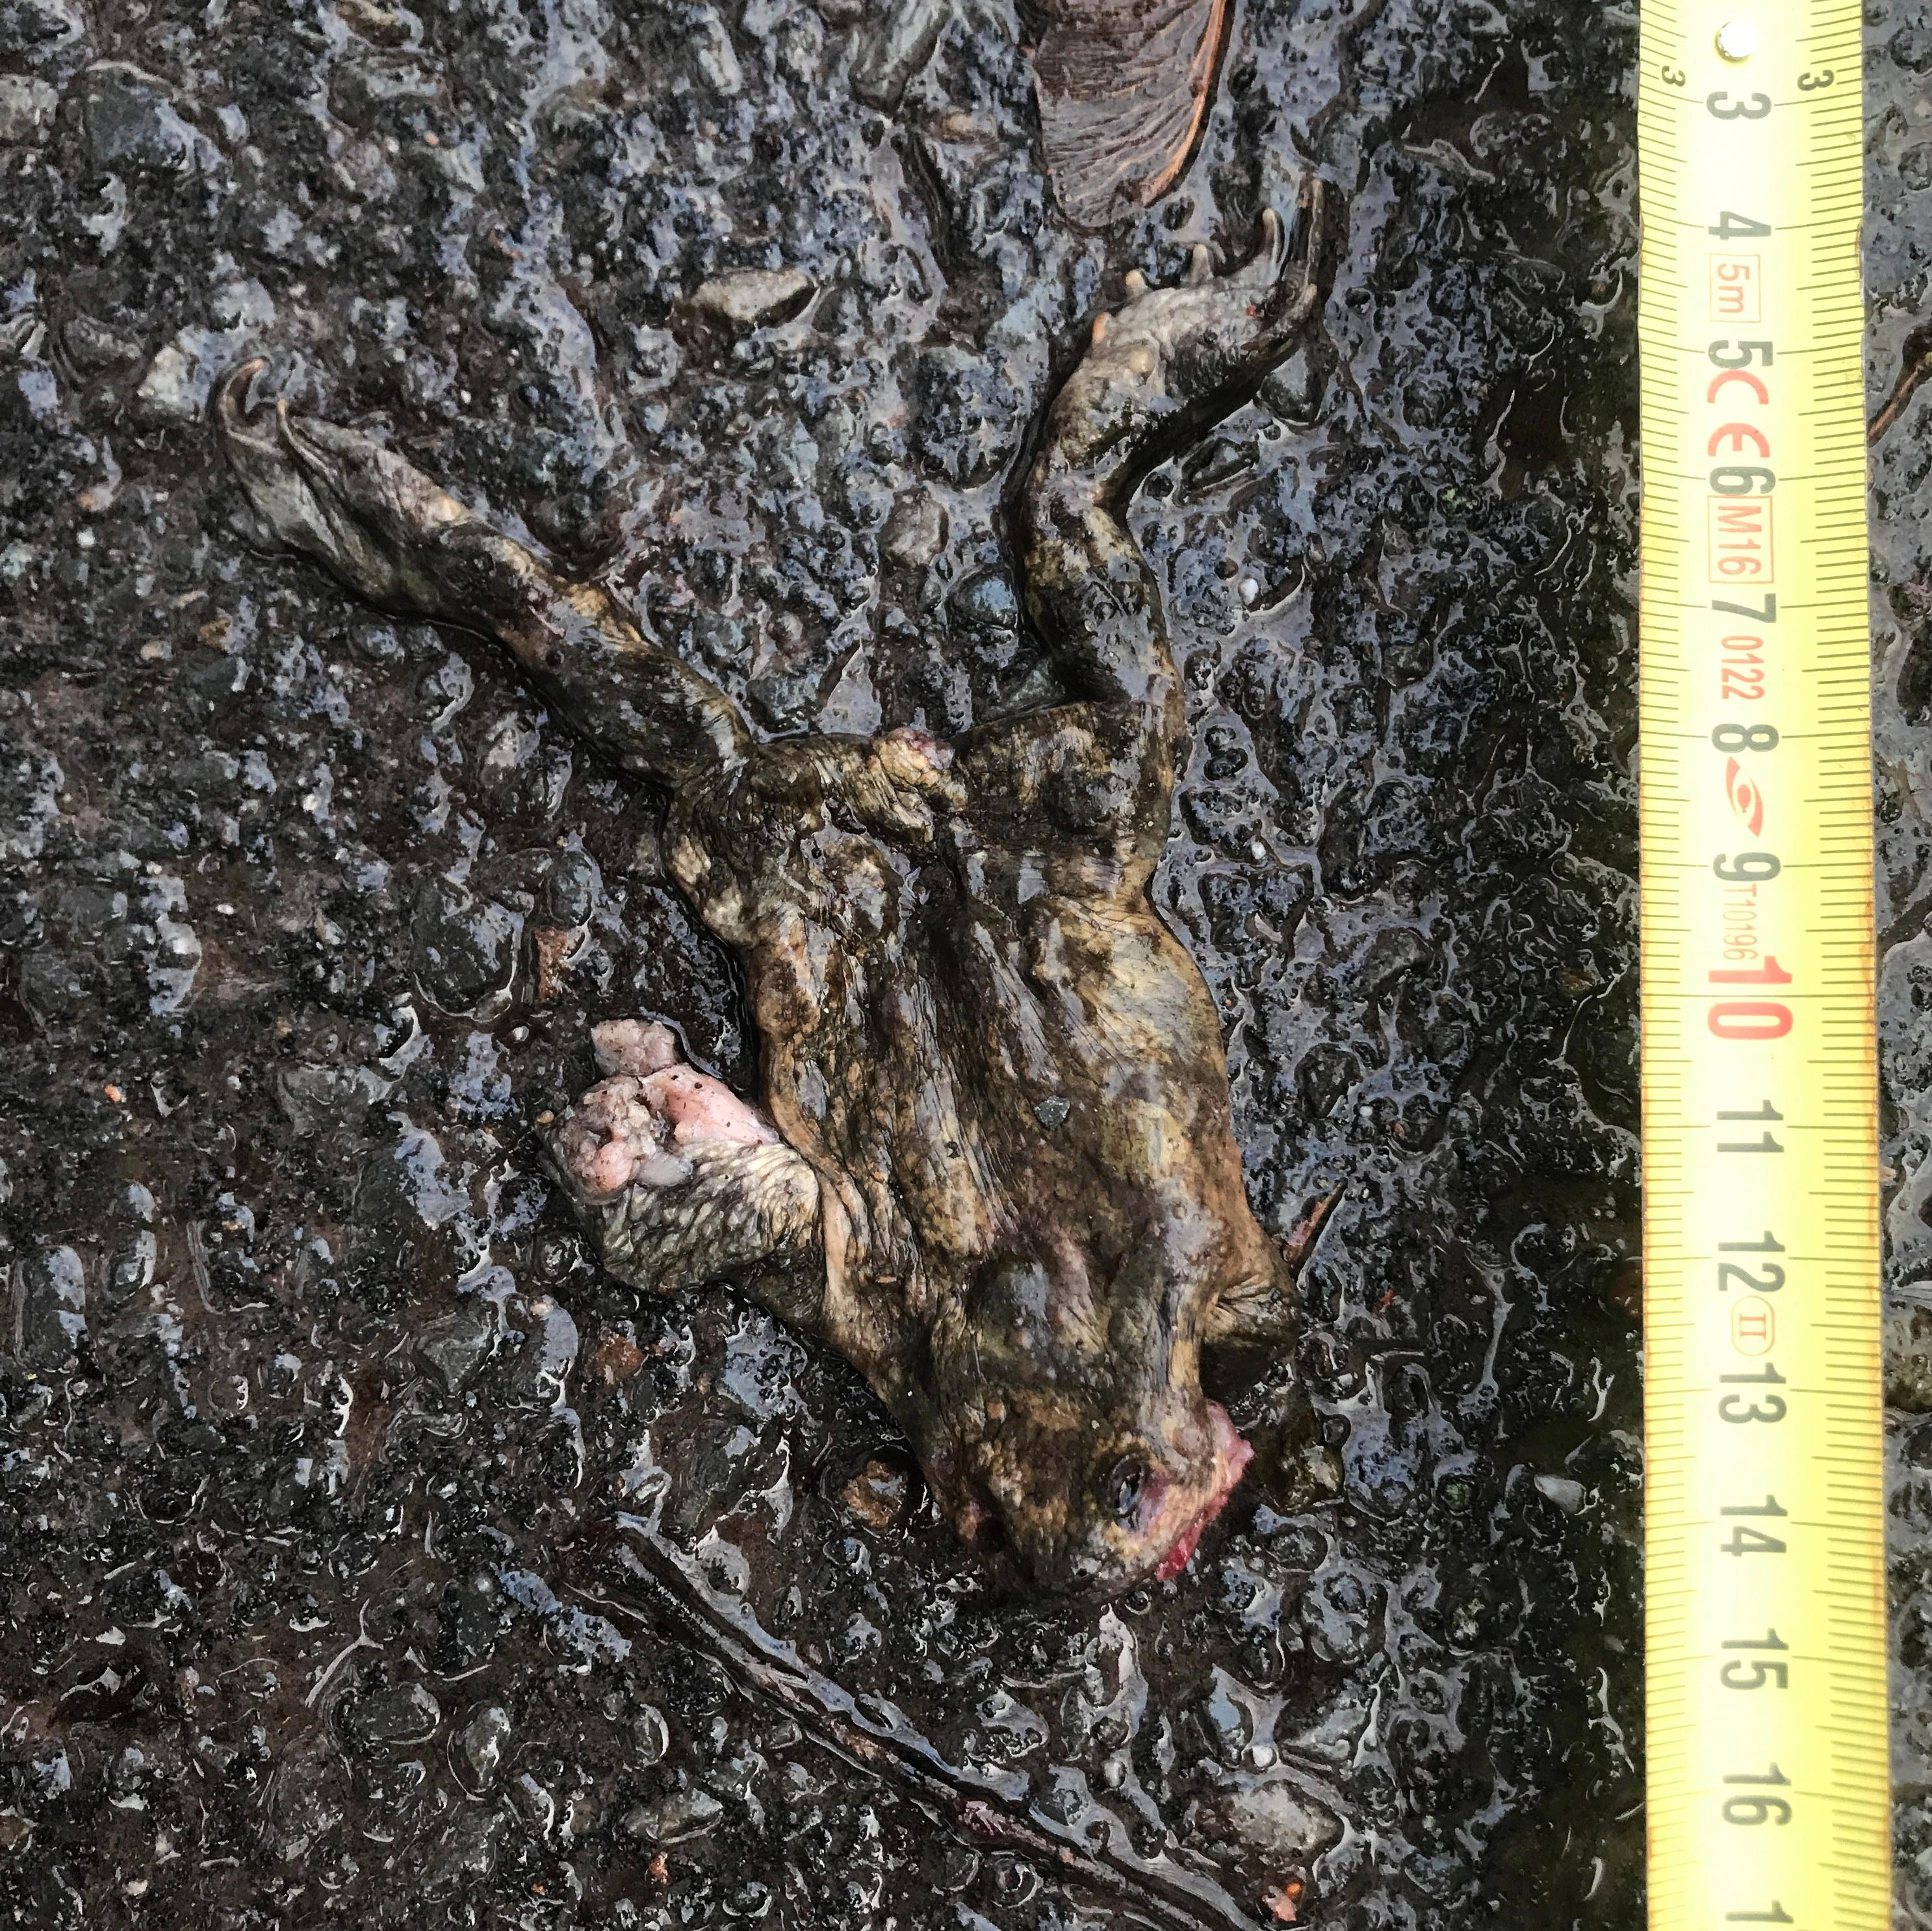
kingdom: Animalia
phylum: Chordata
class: Amphibia
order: Anura
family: Bufonidae
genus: Bufo
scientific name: Bufo bufo
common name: Common toad
